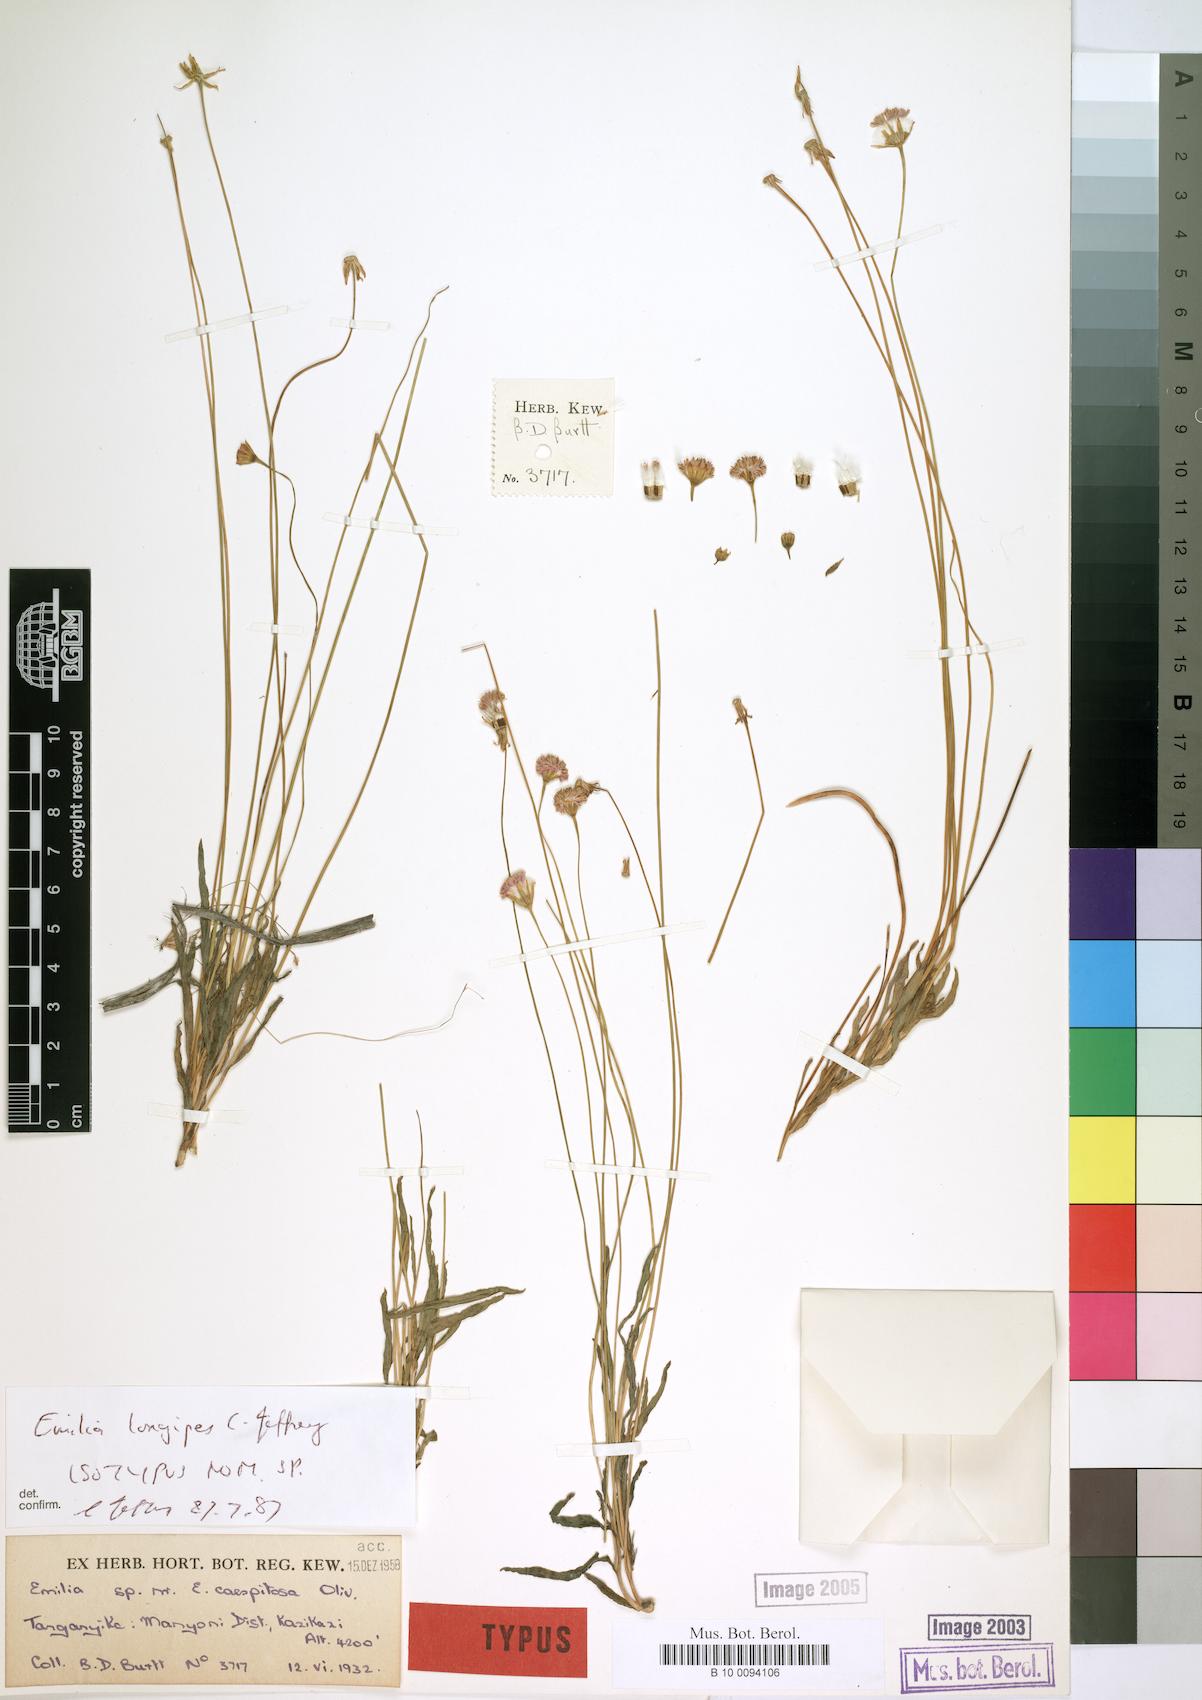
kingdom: Plantae
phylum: Tracheophyta
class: Magnoliopsida
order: Asterales
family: Asteraceae
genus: Emilia
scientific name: Emilia longipes
